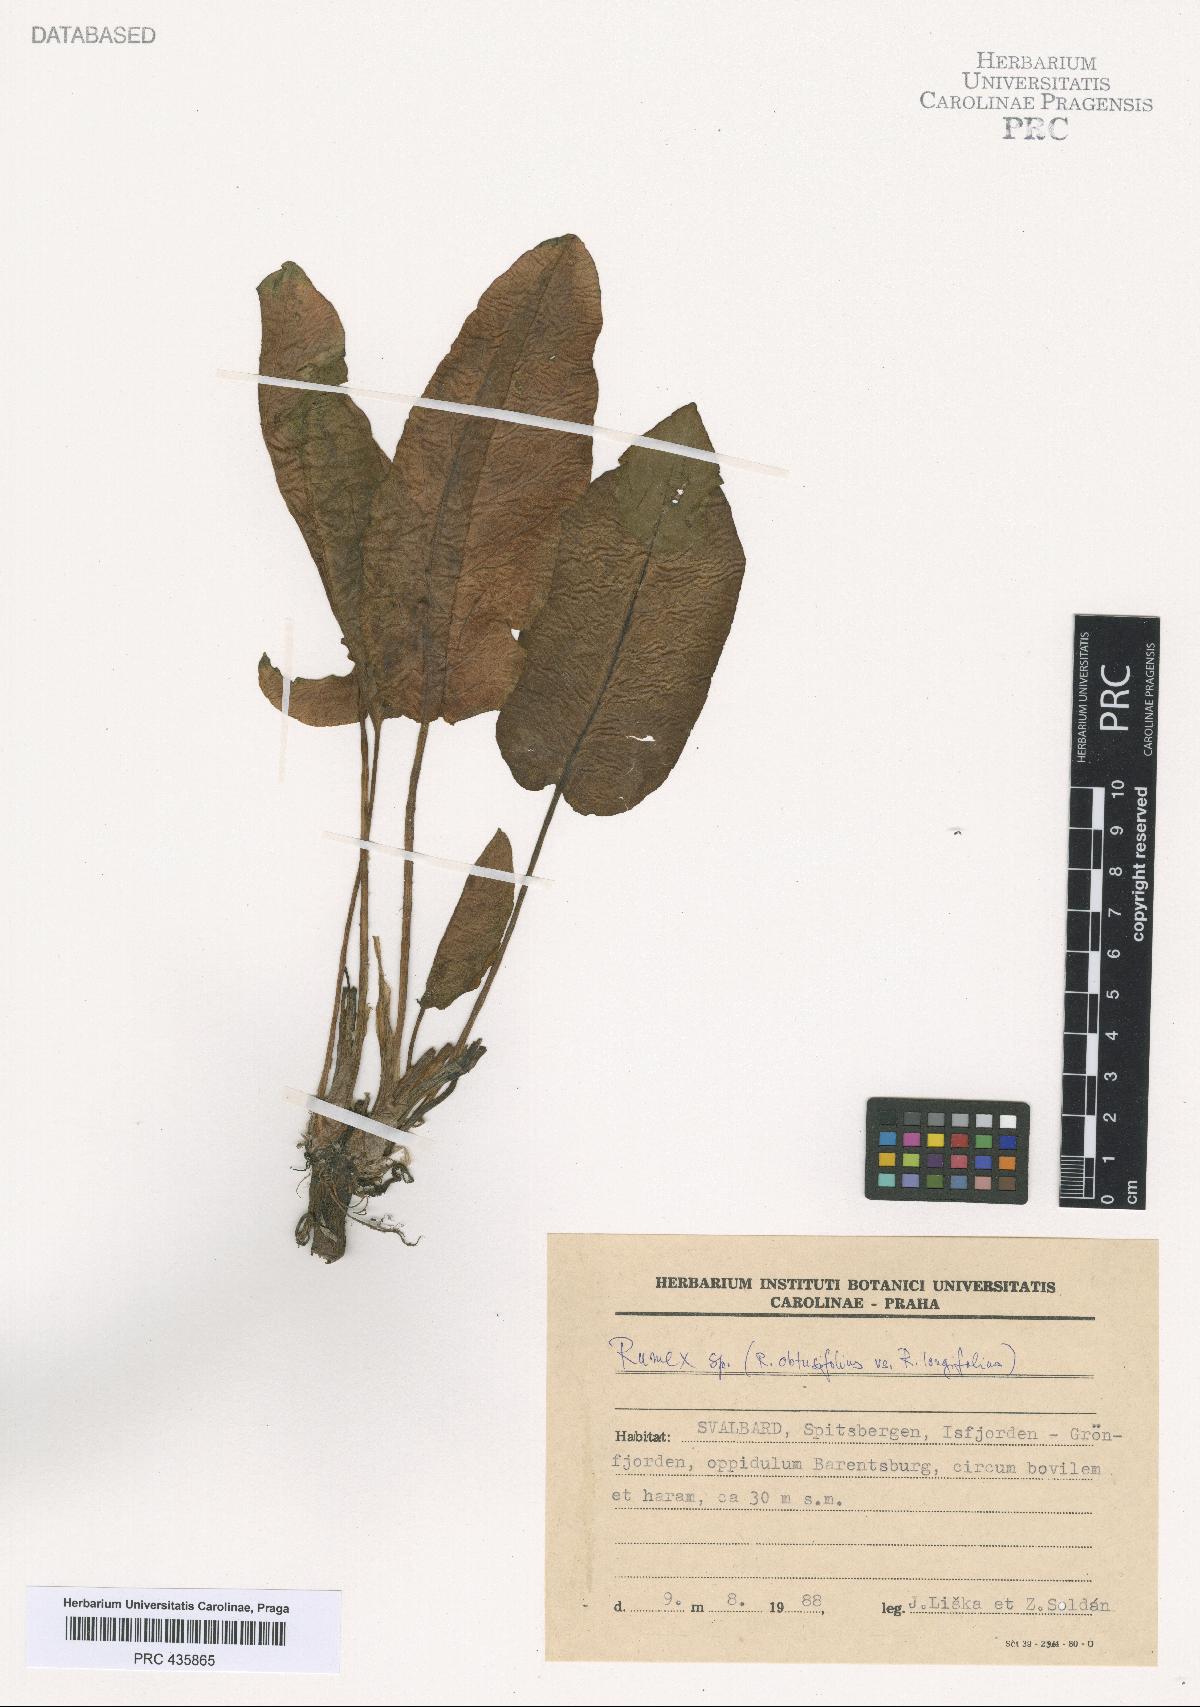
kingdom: Plantae
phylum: Tracheophyta
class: Magnoliopsida
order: Caryophyllales
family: Polygonaceae
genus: Rumex
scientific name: Rumex
